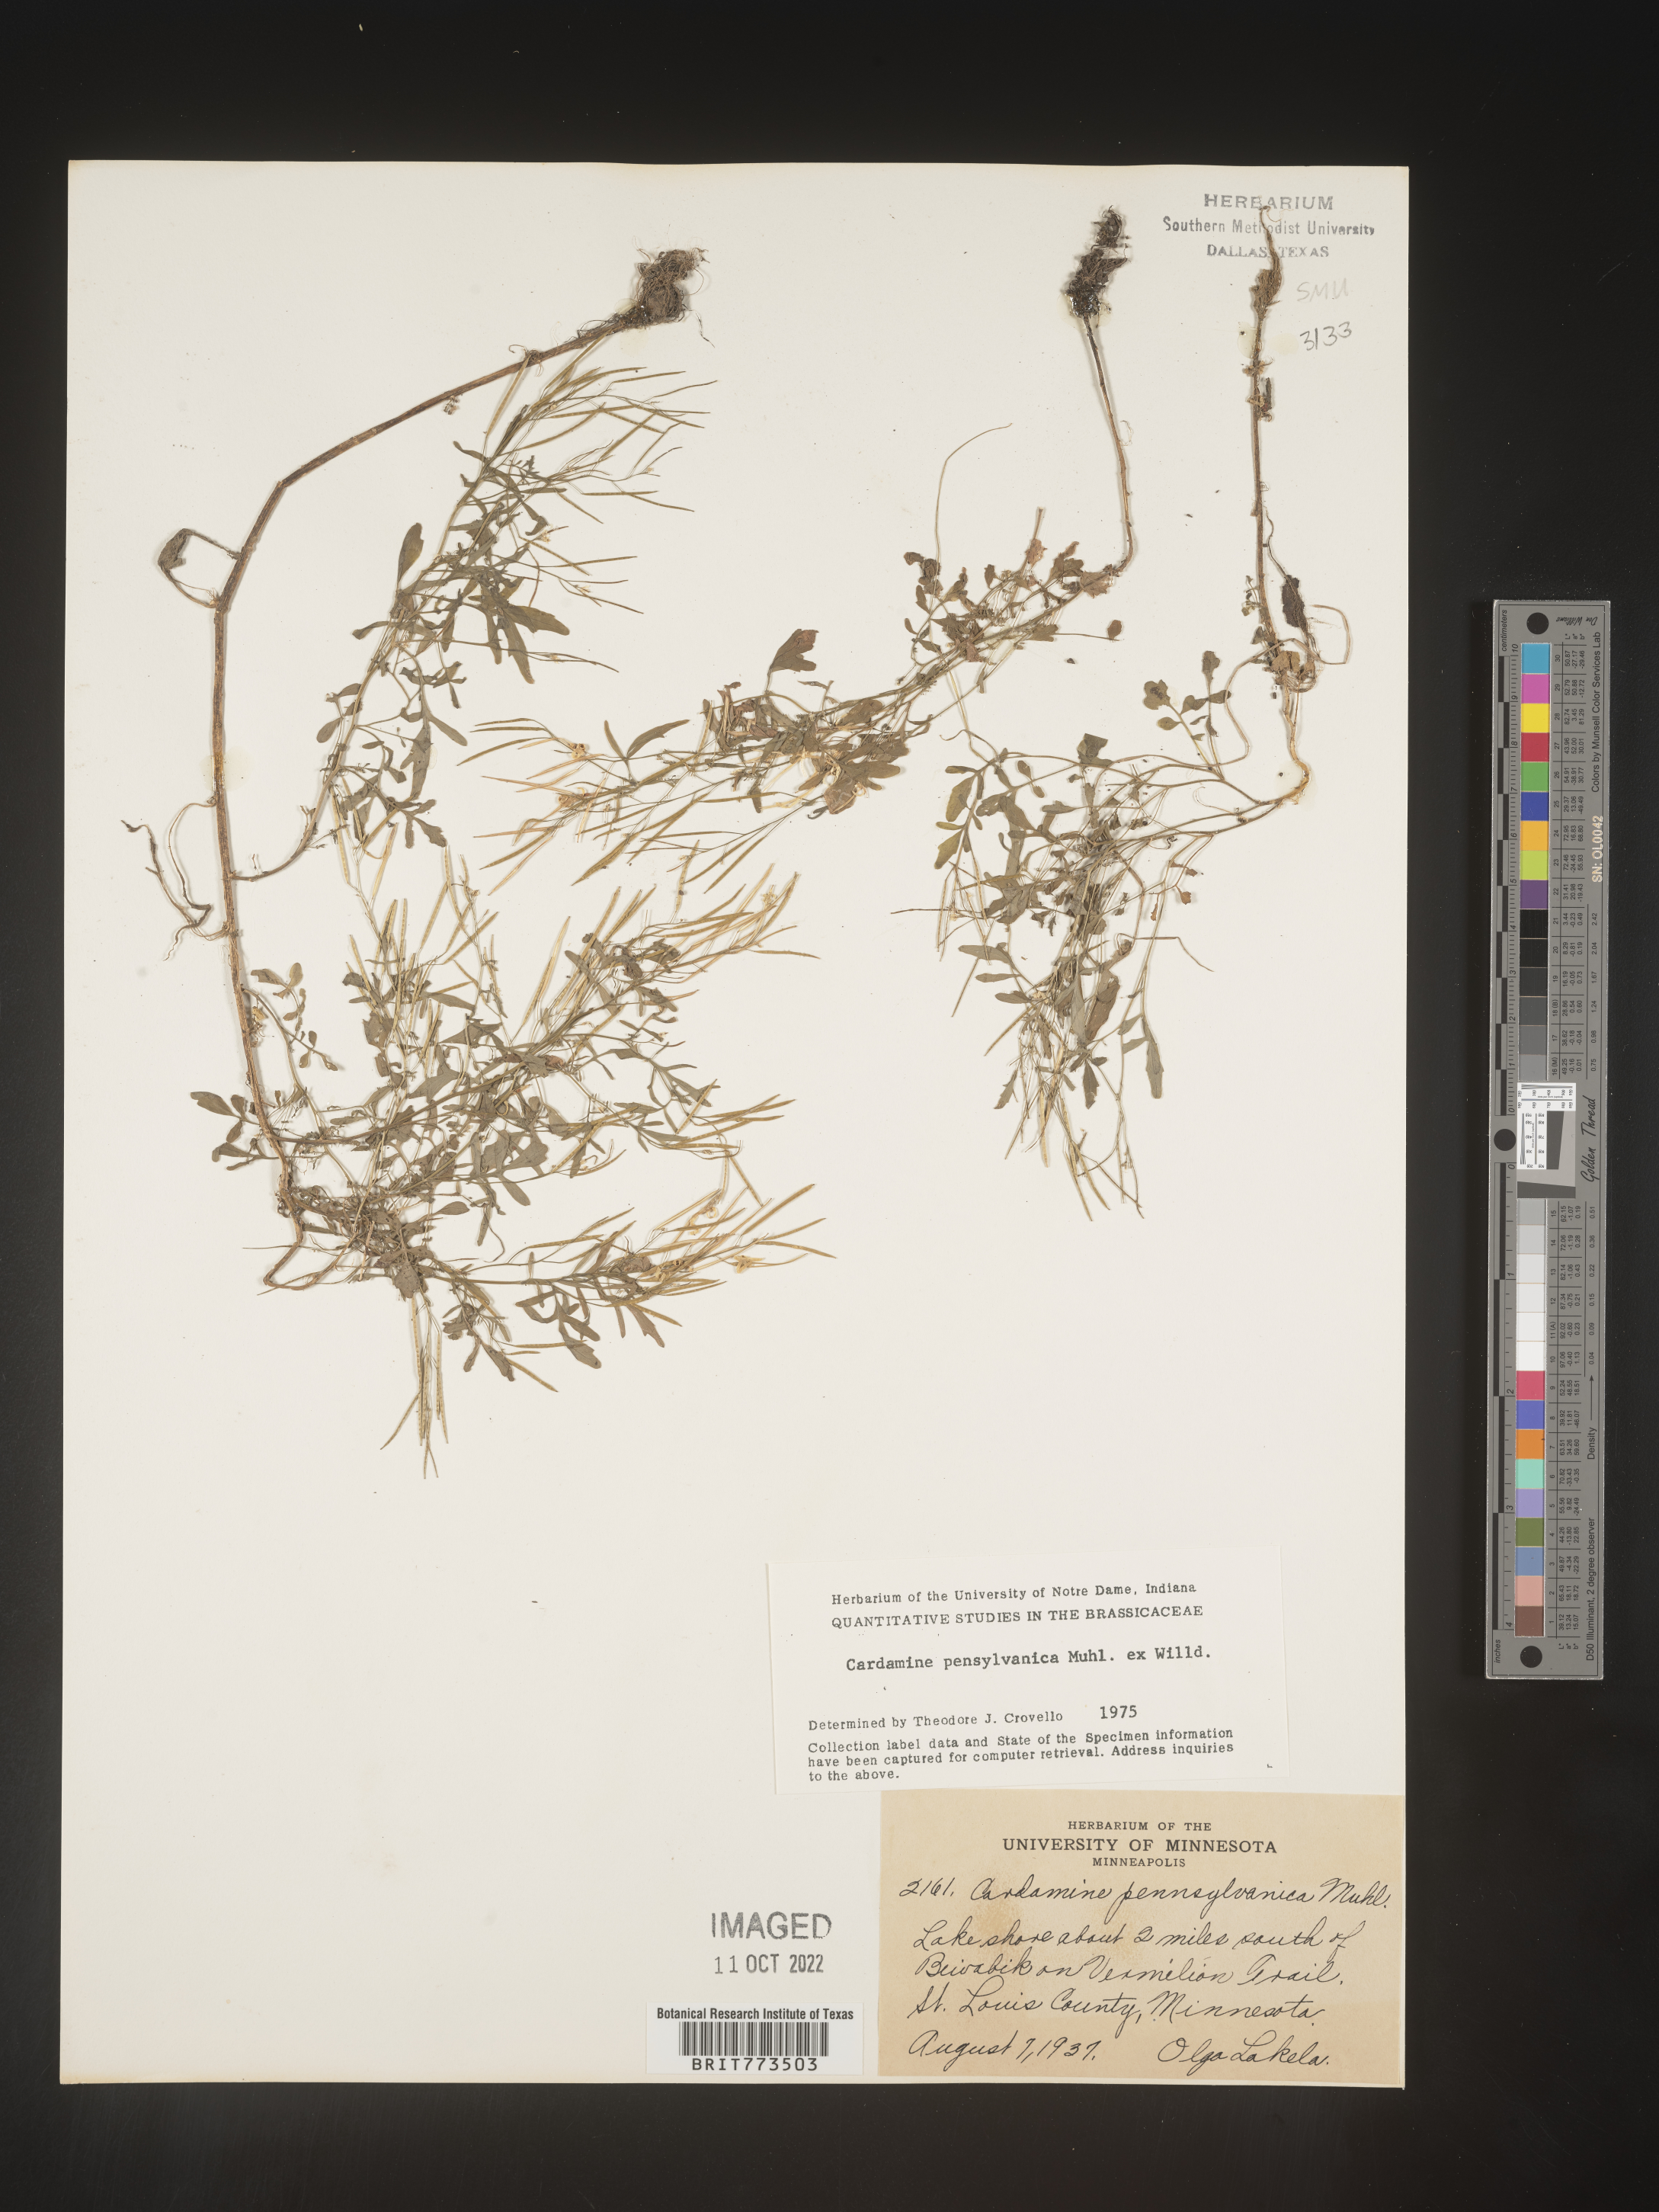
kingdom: Plantae
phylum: Tracheophyta
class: Magnoliopsida
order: Brassicales
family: Brassicaceae
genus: Cardamine
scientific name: Cardamine pensylvanica
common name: Pennsylvania bittercress
